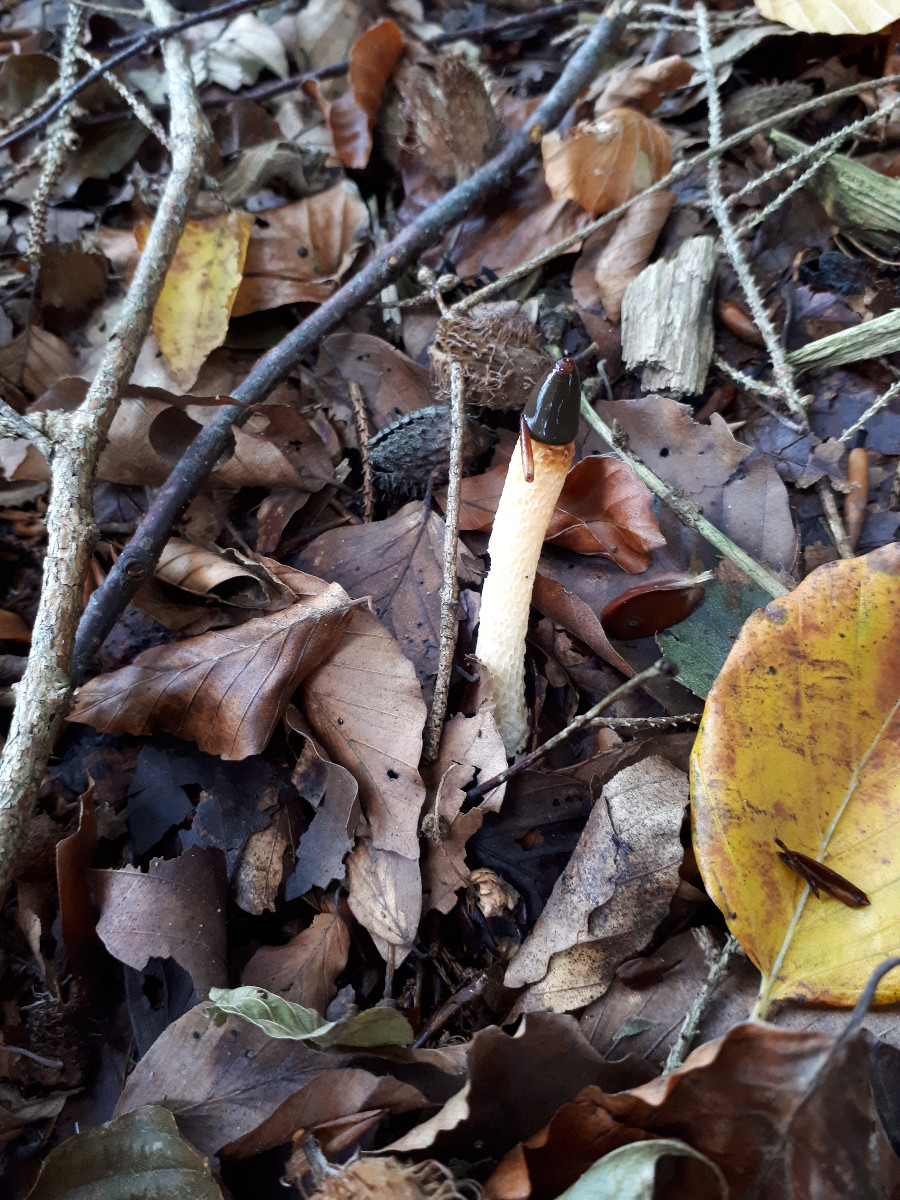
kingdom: Fungi
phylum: Basidiomycota
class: Agaricomycetes
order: Phallales
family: Phallaceae
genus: Mutinus
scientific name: Mutinus caninus
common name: hunde-stinksvamp
